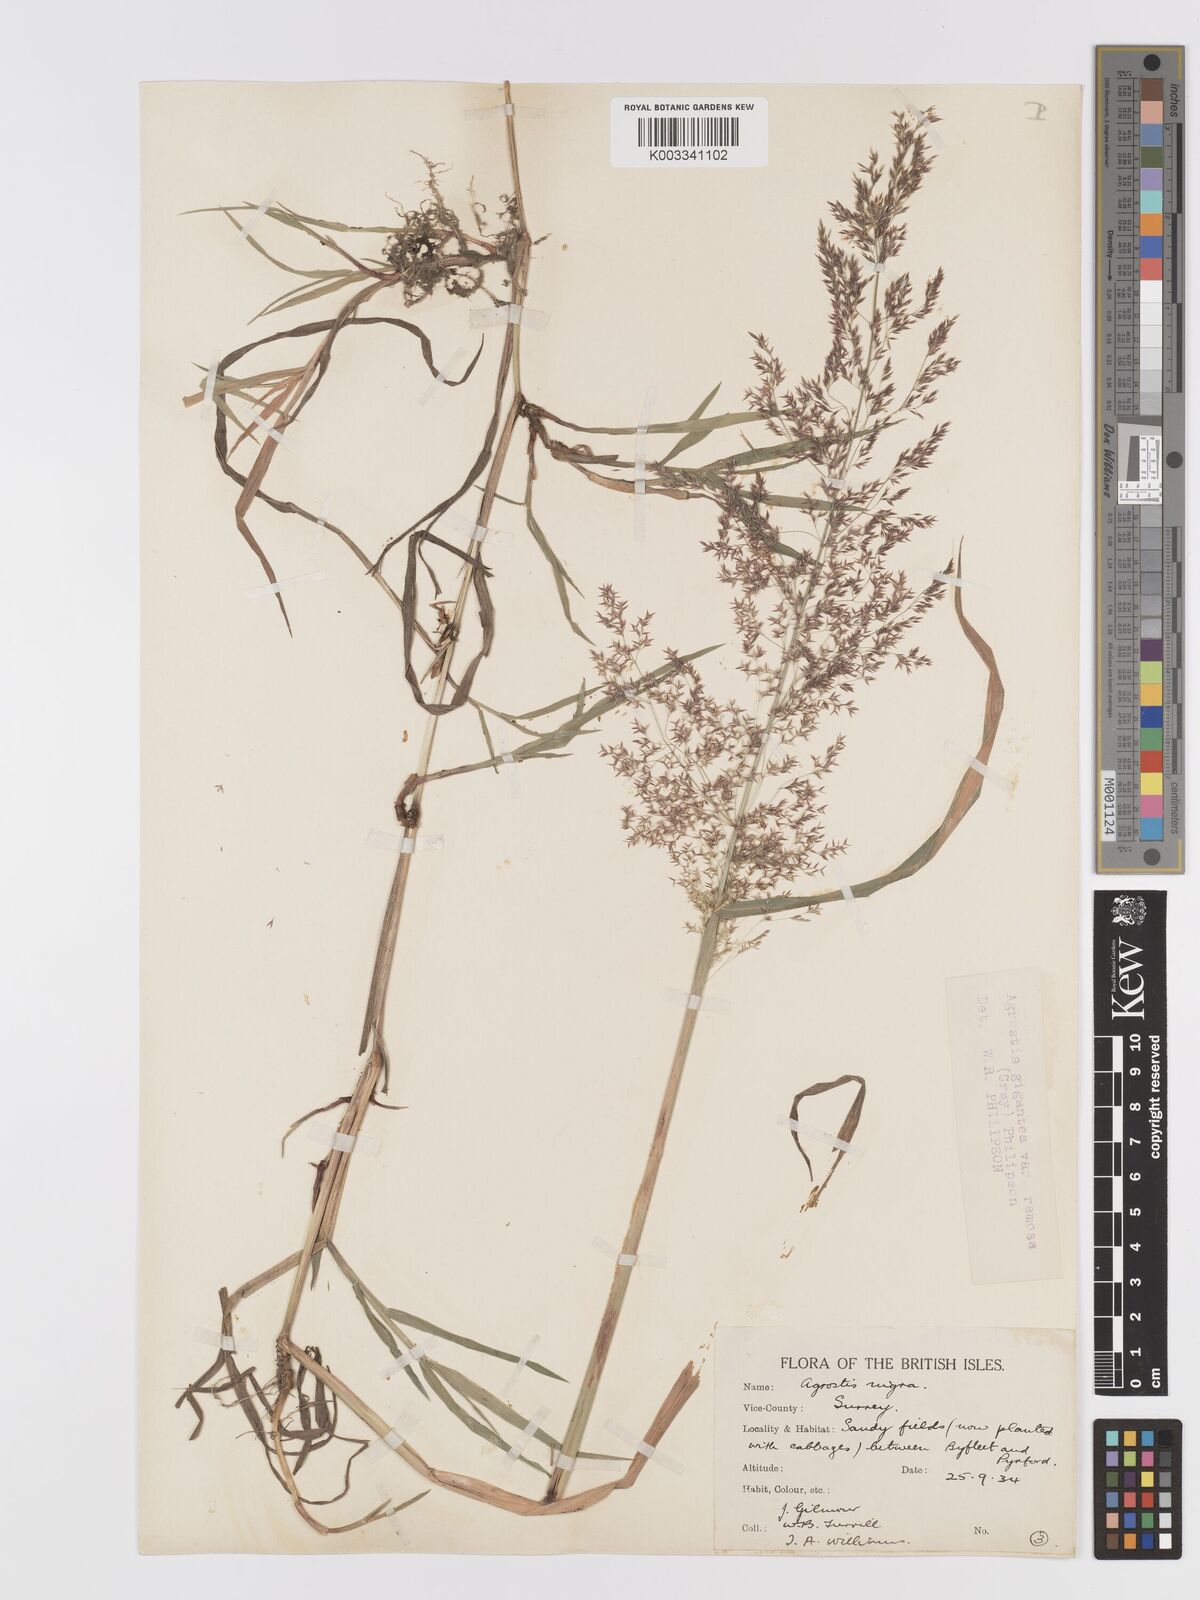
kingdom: Plantae
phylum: Tracheophyta
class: Liliopsida
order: Poales
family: Poaceae
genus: Agrostis
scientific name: Agrostis gigantea
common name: Black bent
